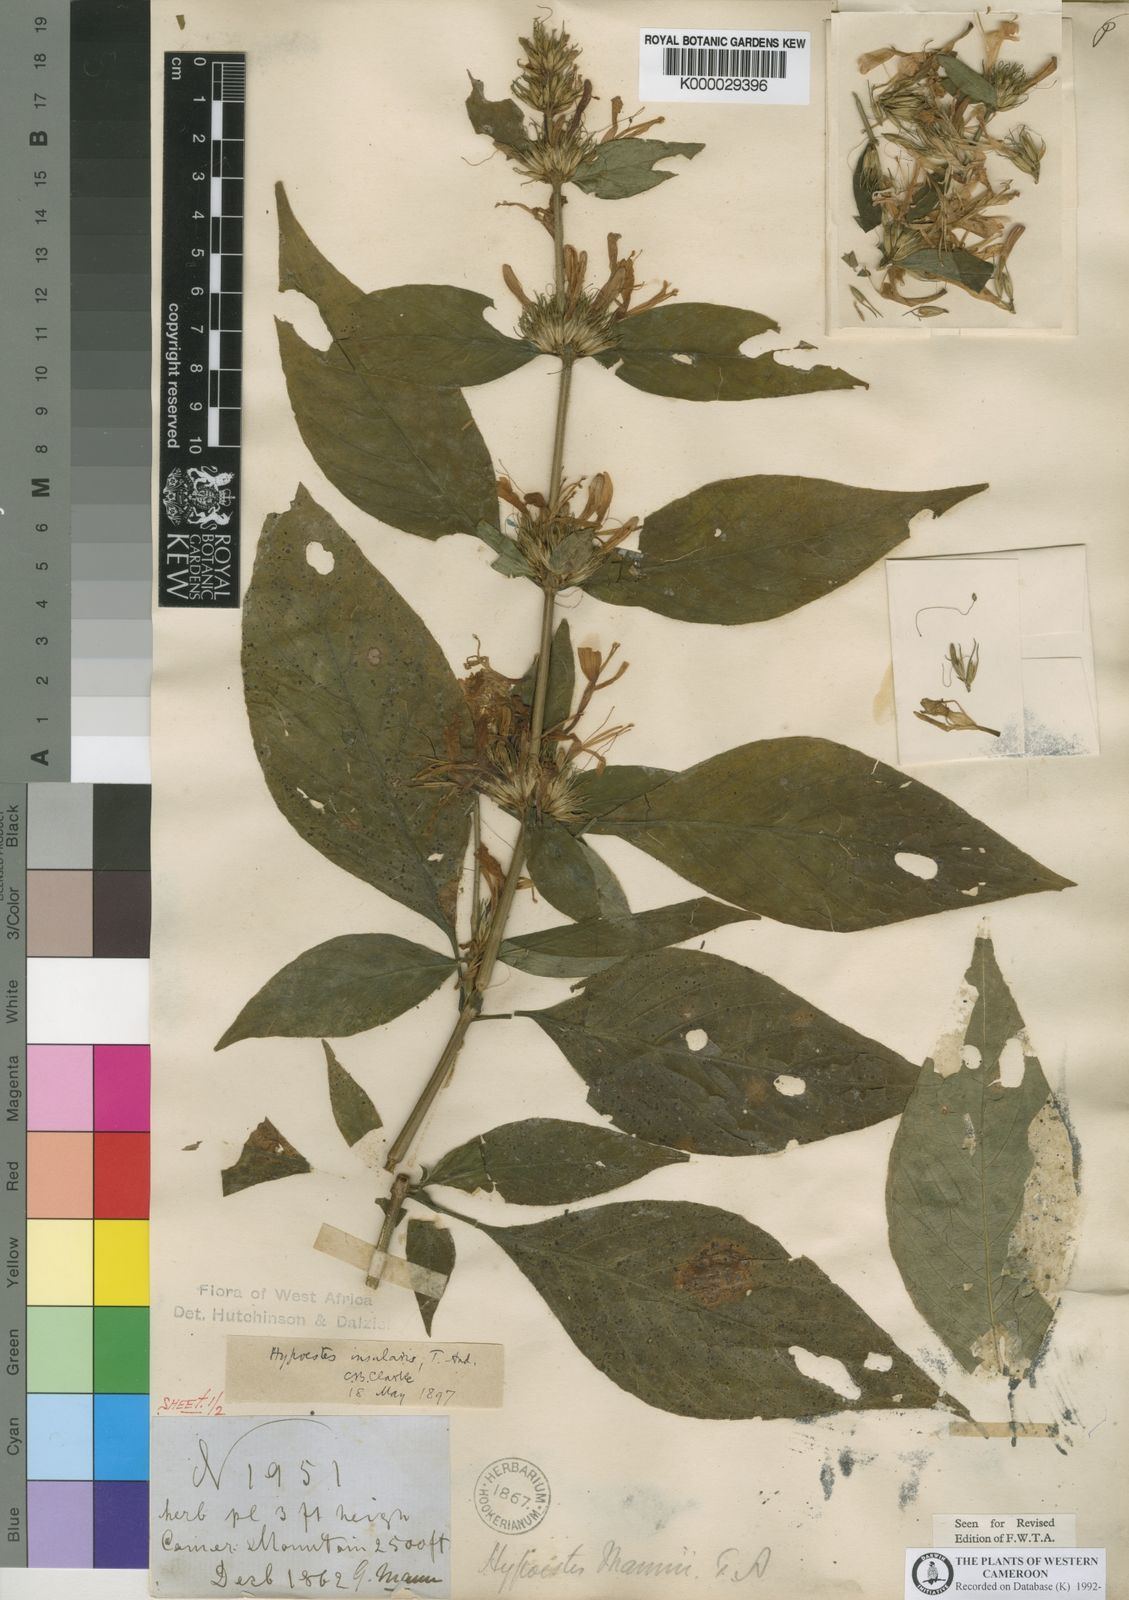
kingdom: Plantae
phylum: Tracheophyta
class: Magnoliopsida
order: Lamiales
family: Acanthaceae
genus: Hypoestes
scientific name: Hypoestes aristata
